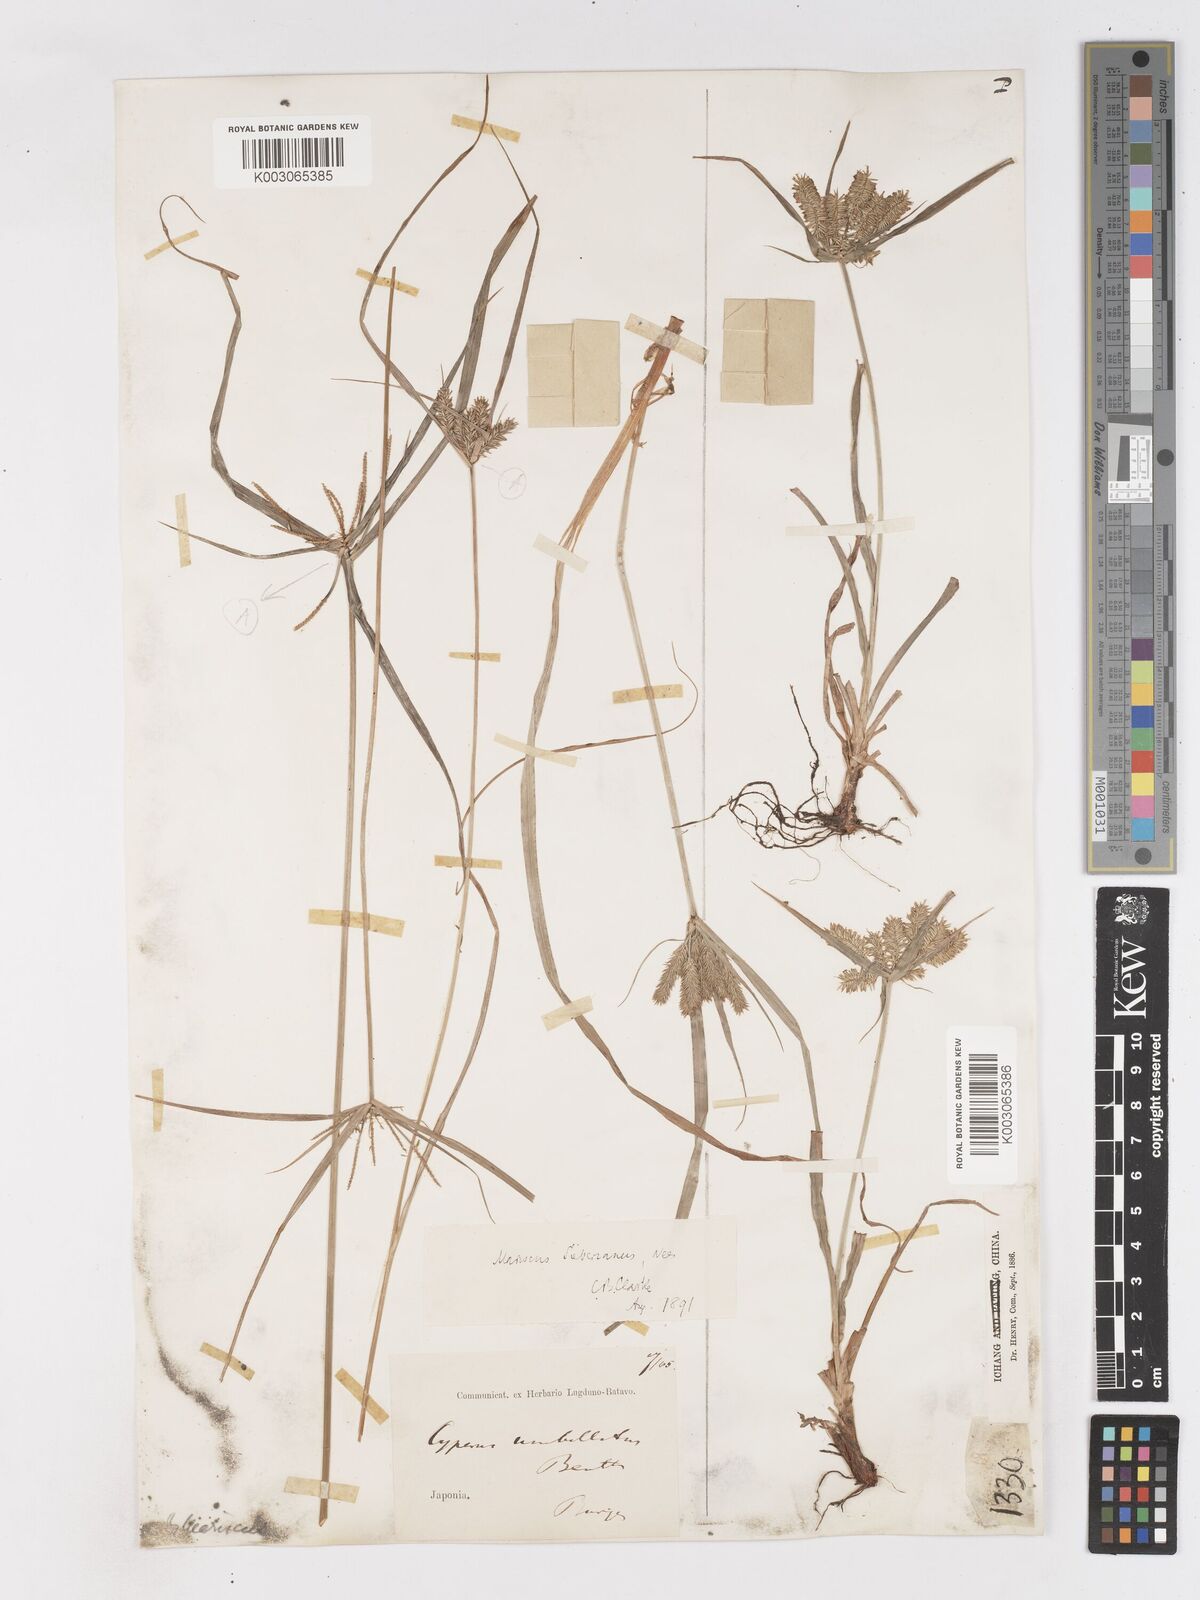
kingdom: Plantae
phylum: Tracheophyta
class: Liliopsida
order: Poales
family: Cyperaceae
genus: Cyperus
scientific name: Cyperus cyperoides
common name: Pacific island flat sedge
